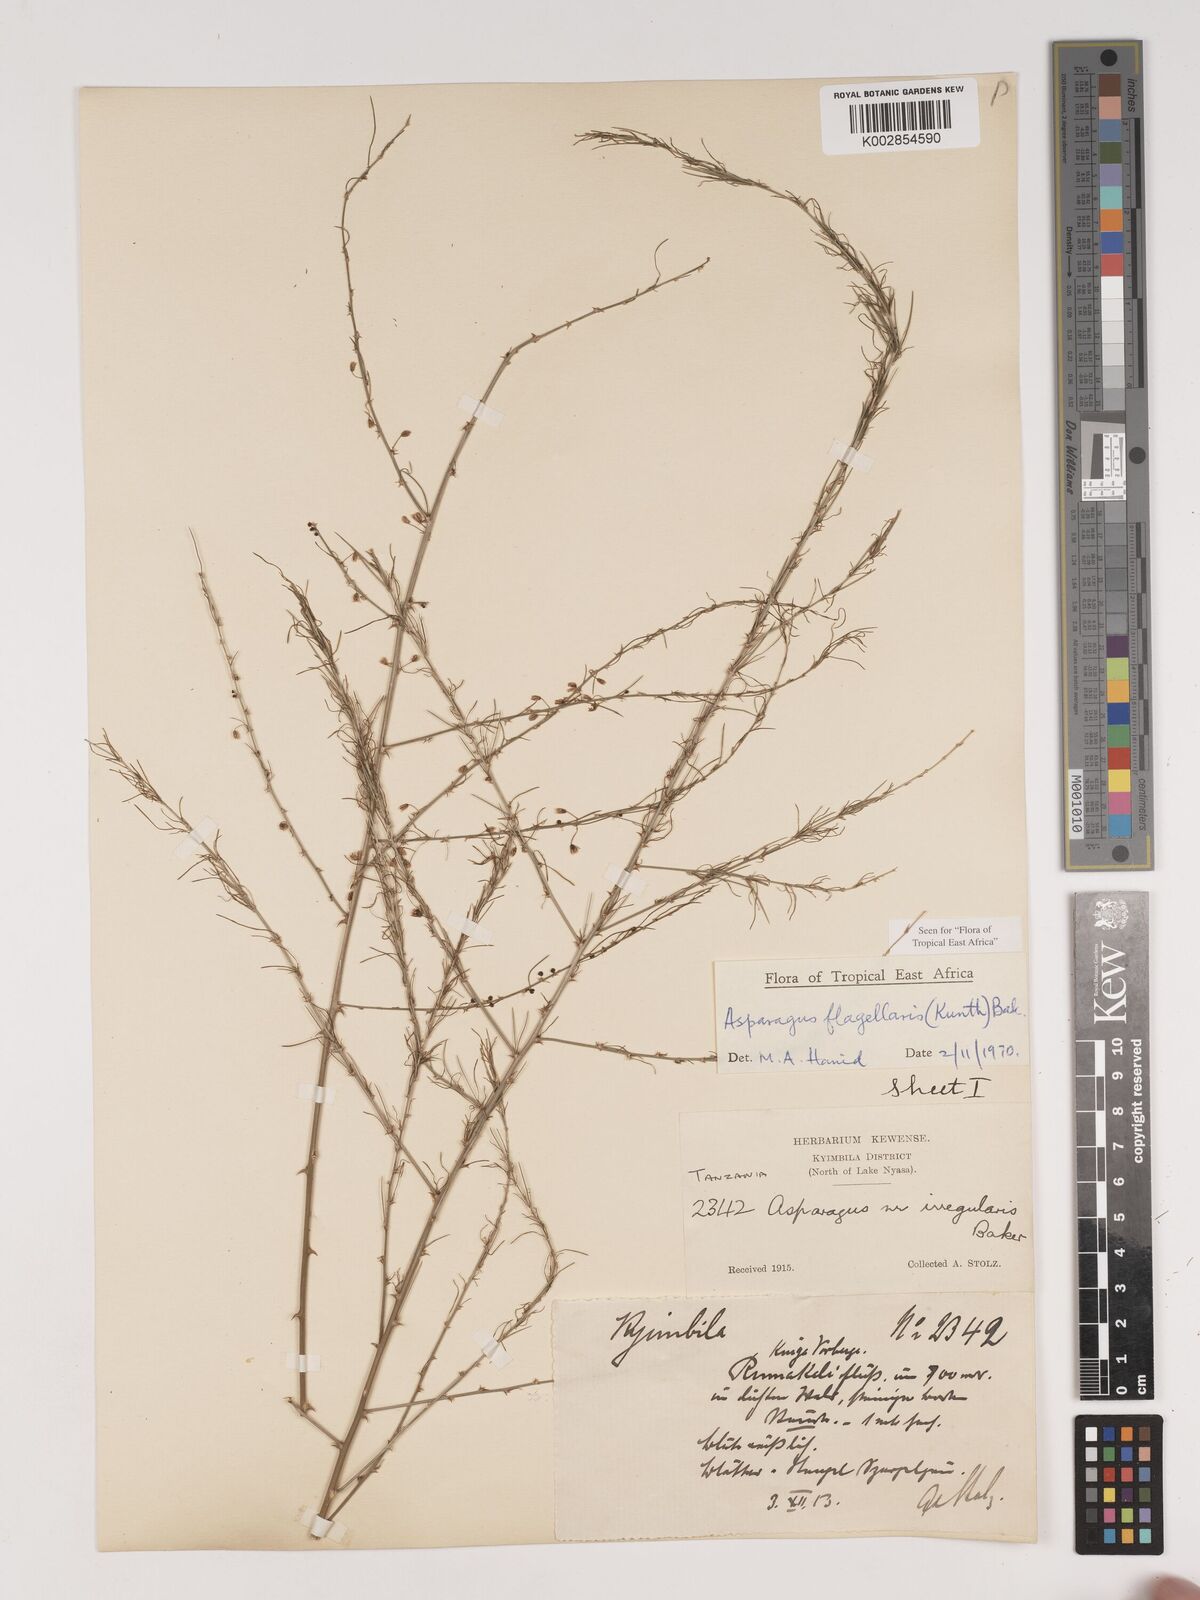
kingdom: Plantae
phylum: Tracheophyta
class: Liliopsida
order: Asparagales
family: Asparagaceae
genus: Asparagus
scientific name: Asparagus flagellaris
